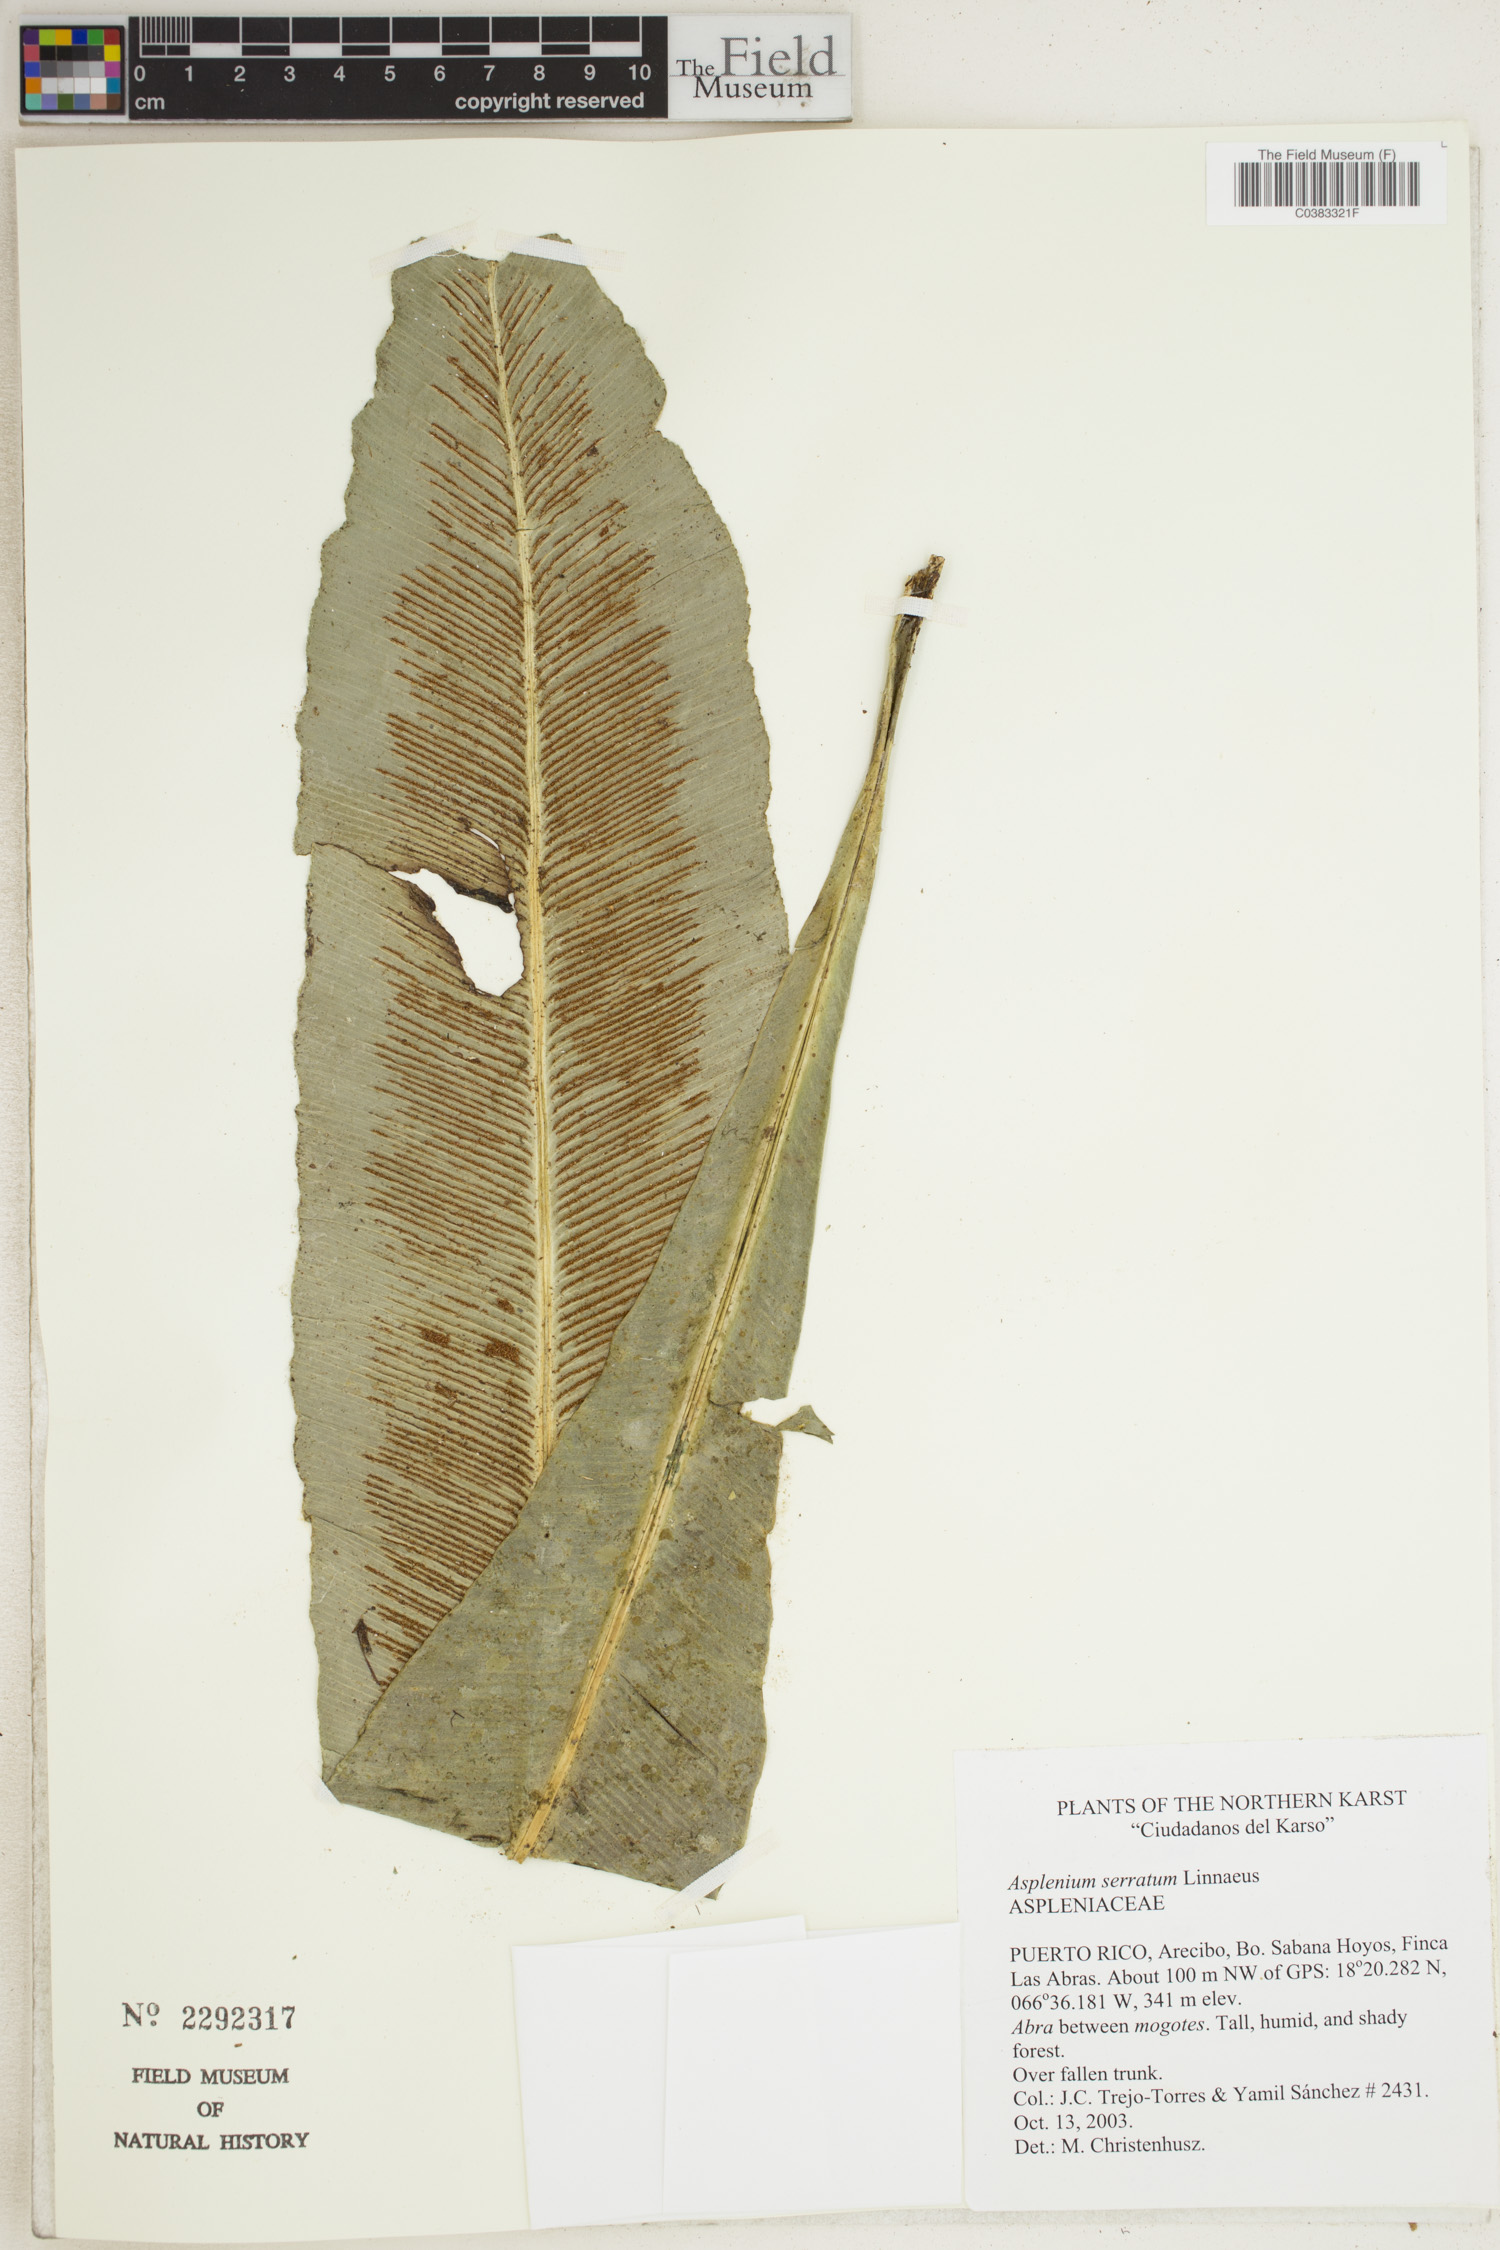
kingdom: Plantae
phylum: Tracheophyta
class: Polypodiopsida
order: Polypodiales
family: Aspleniaceae
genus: Asplenium
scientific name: Asplenium serratum
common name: Wild birdnest fern
